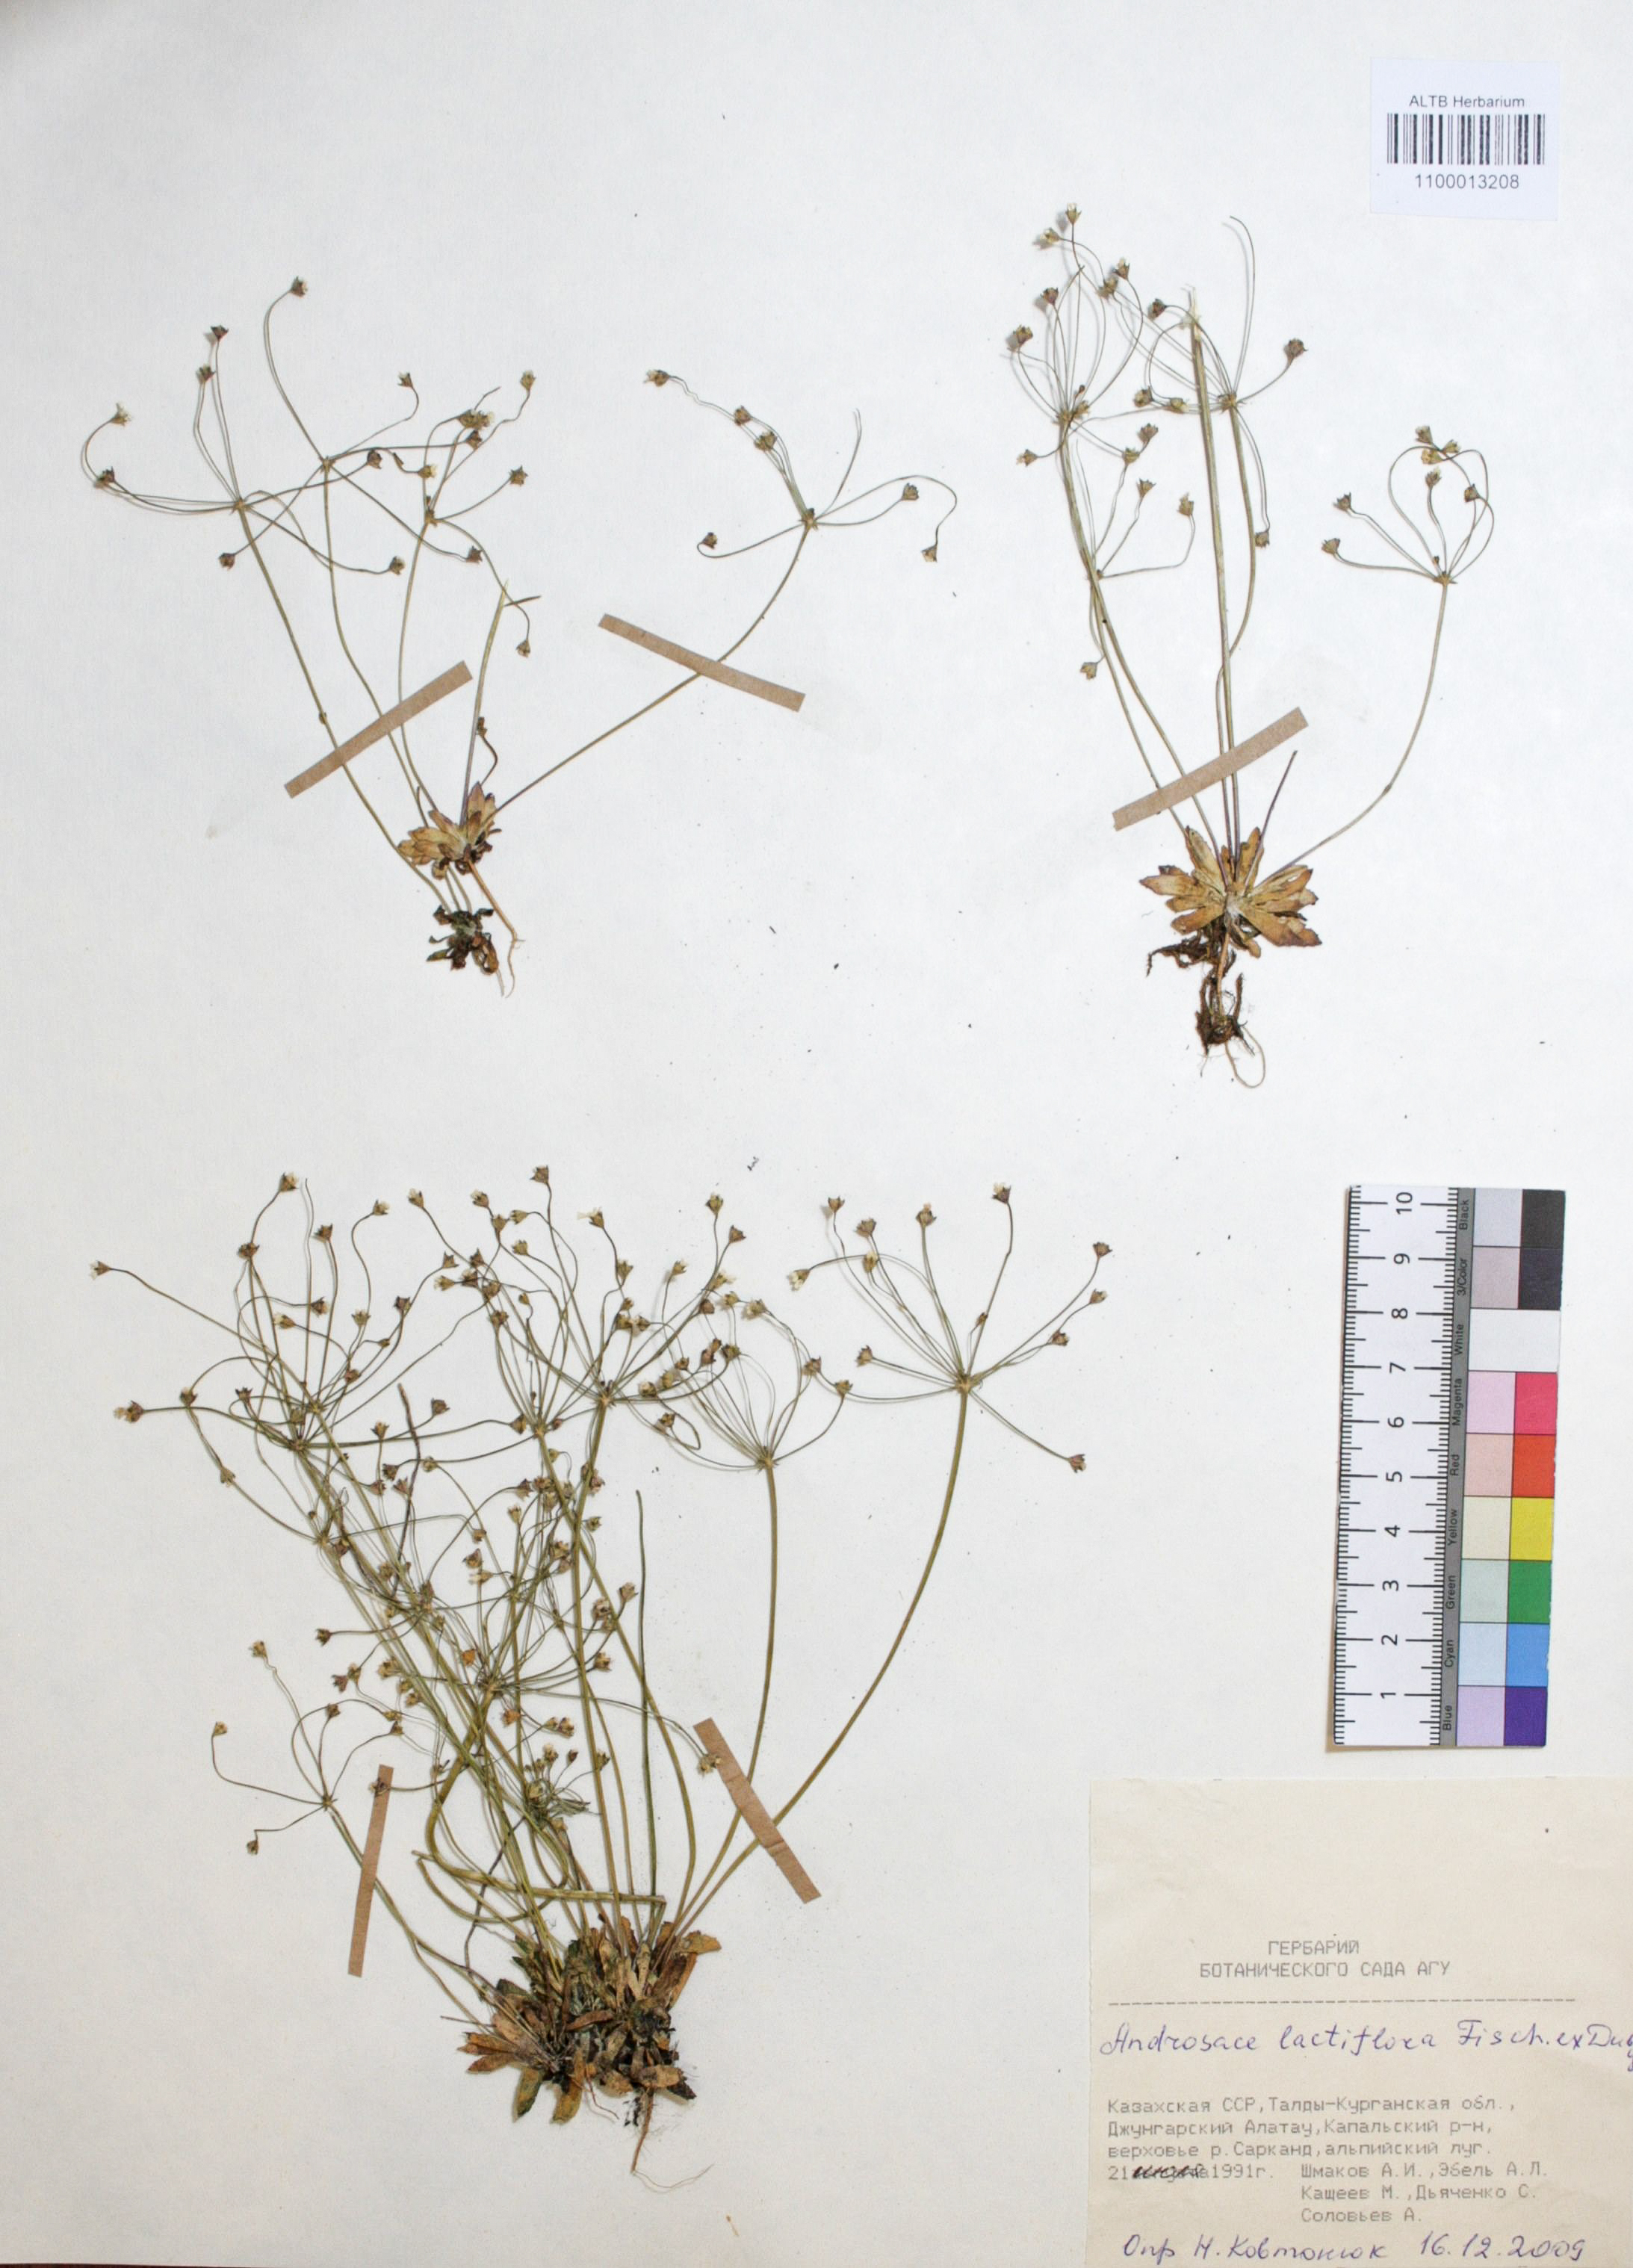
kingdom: Plantae
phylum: Tracheophyta
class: Magnoliopsida
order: Ericales
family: Primulaceae
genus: Androsace
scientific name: Androsace lactiflora
